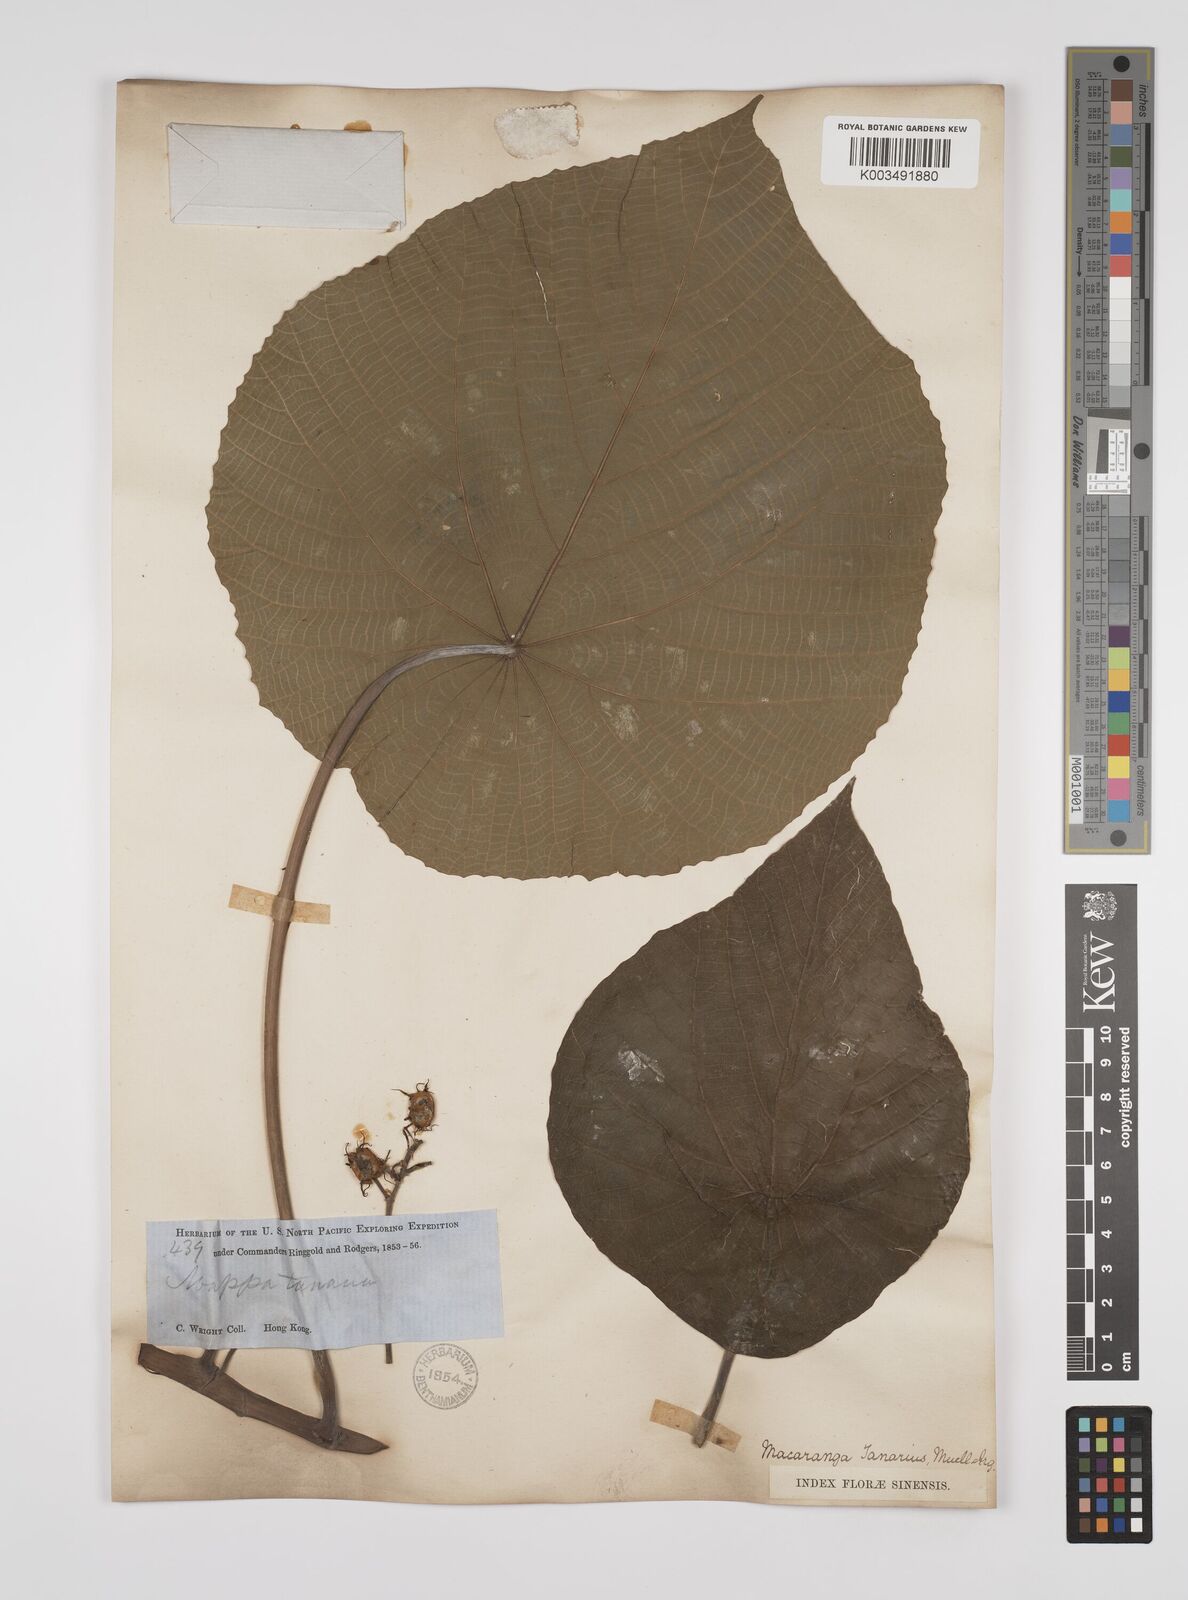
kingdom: Plantae
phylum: Tracheophyta
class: Magnoliopsida
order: Malpighiales
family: Euphorbiaceae
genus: Macaranga
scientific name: Macaranga tanarius
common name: Parasol leaf tree
